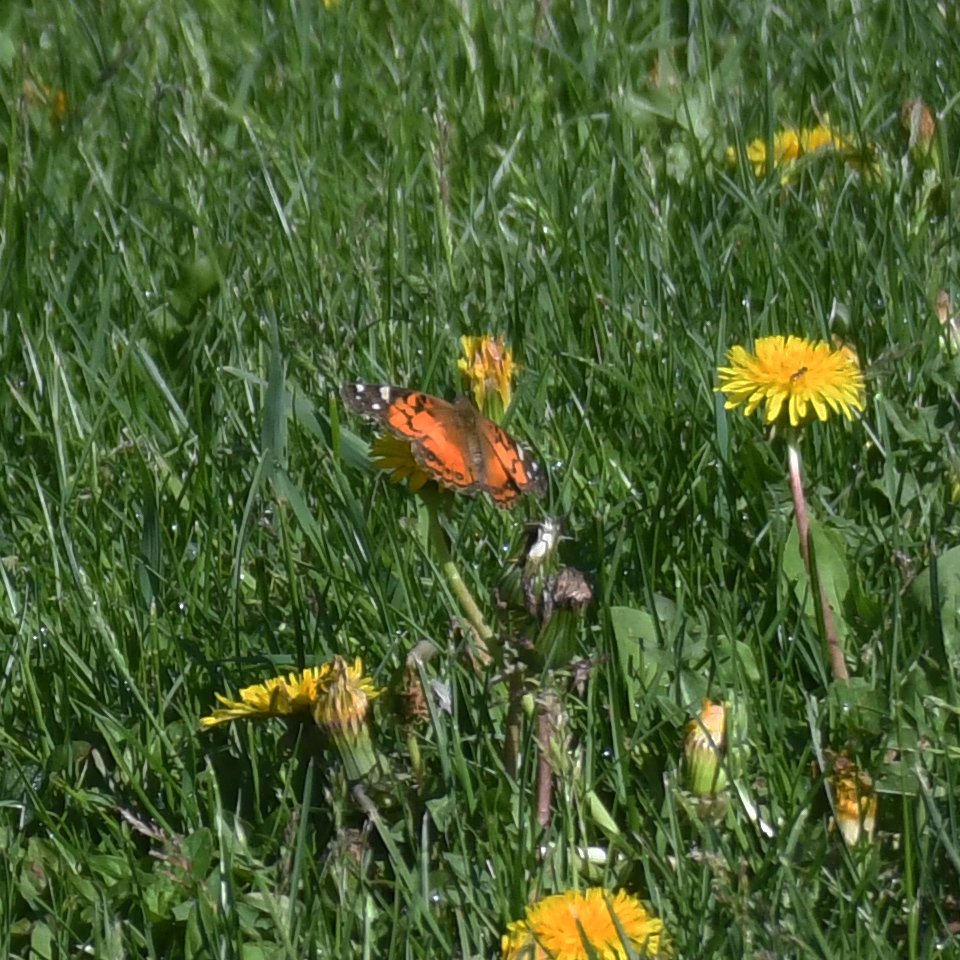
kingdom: Animalia
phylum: Arthropoda
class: Insecta
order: Lepidoptera
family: Nymphalidae
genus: Vanessa
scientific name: Vanessa virginiensis
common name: American Lady
